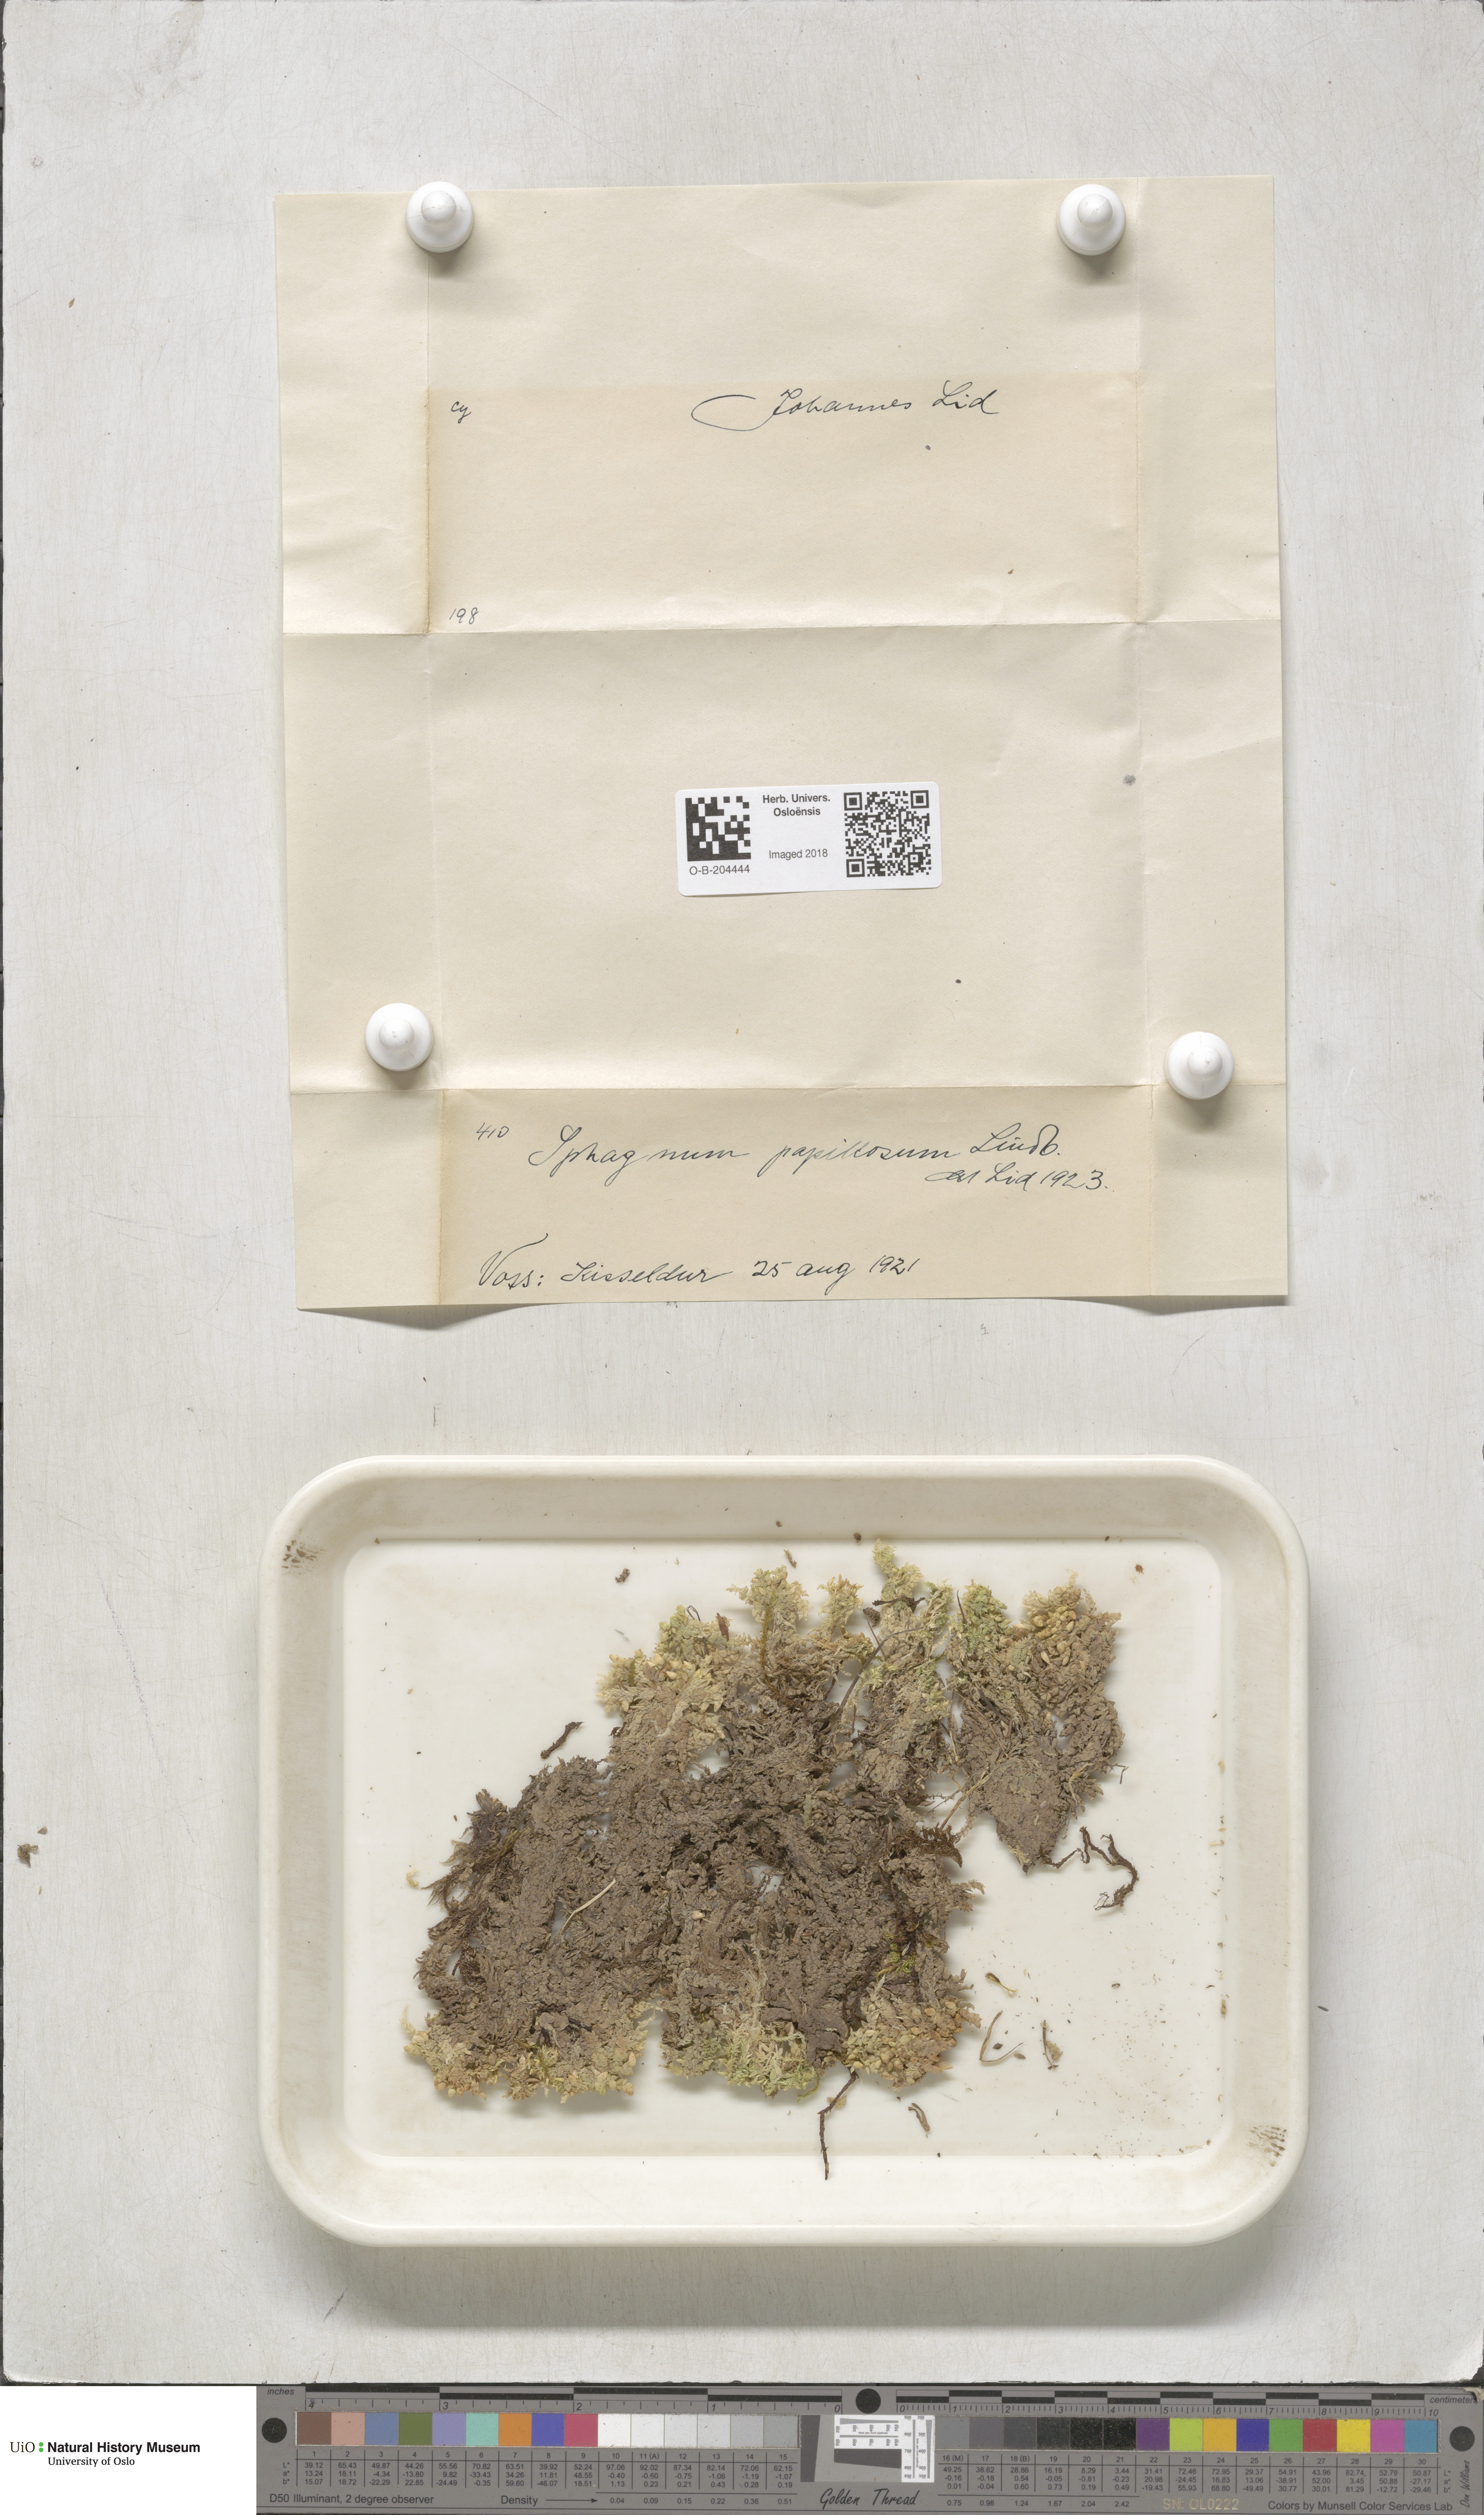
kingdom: Plantae
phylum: Bryophyta
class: Sphagnopsida
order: Sphagnales
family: Sphagnaceae
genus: Sphagnum
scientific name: Sphagnum papillosum
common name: Papillose peat moss
